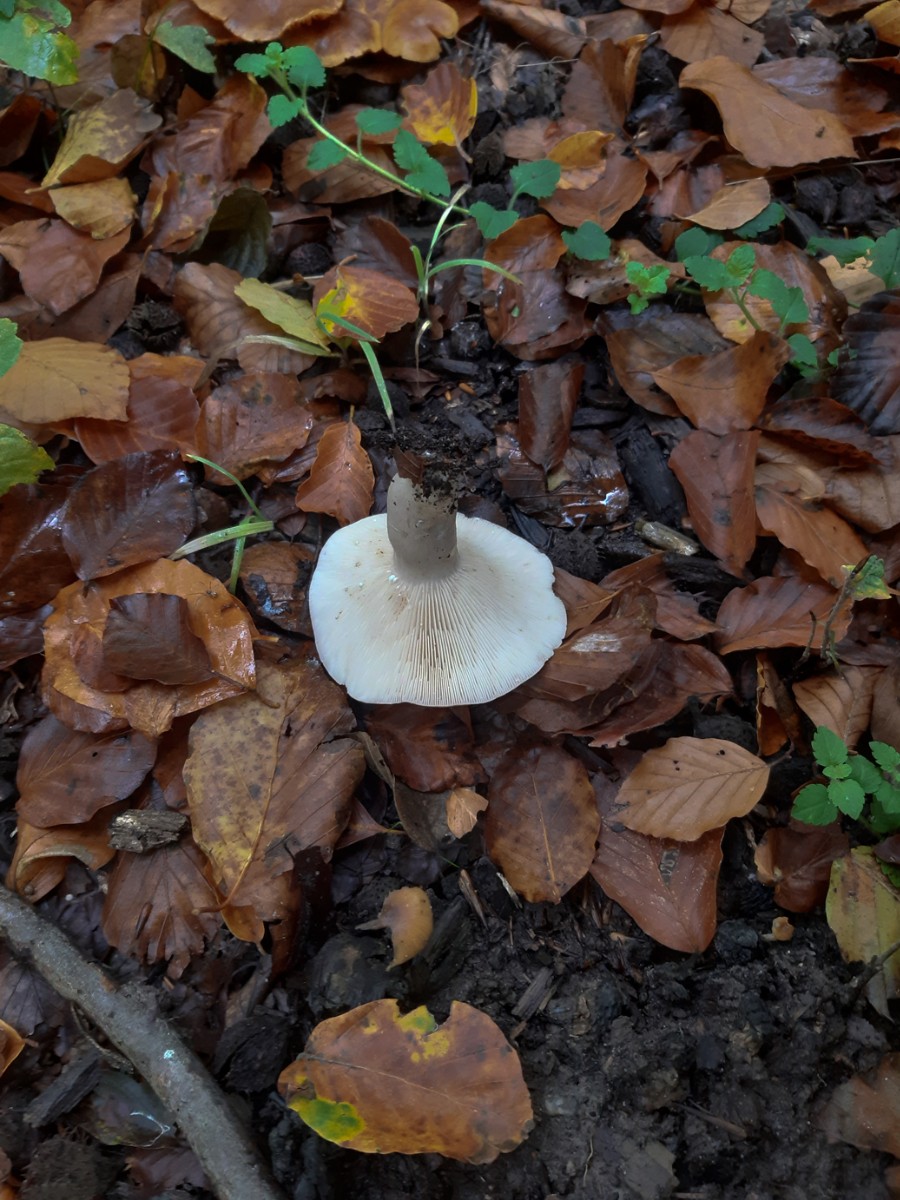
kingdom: Fungi
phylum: Basidiomycota
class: Agaricomycetes
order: Russulales
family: Russulaceae
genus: Lactarius
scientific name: Lactarius blennius
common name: dråbeplettet mælkehat
